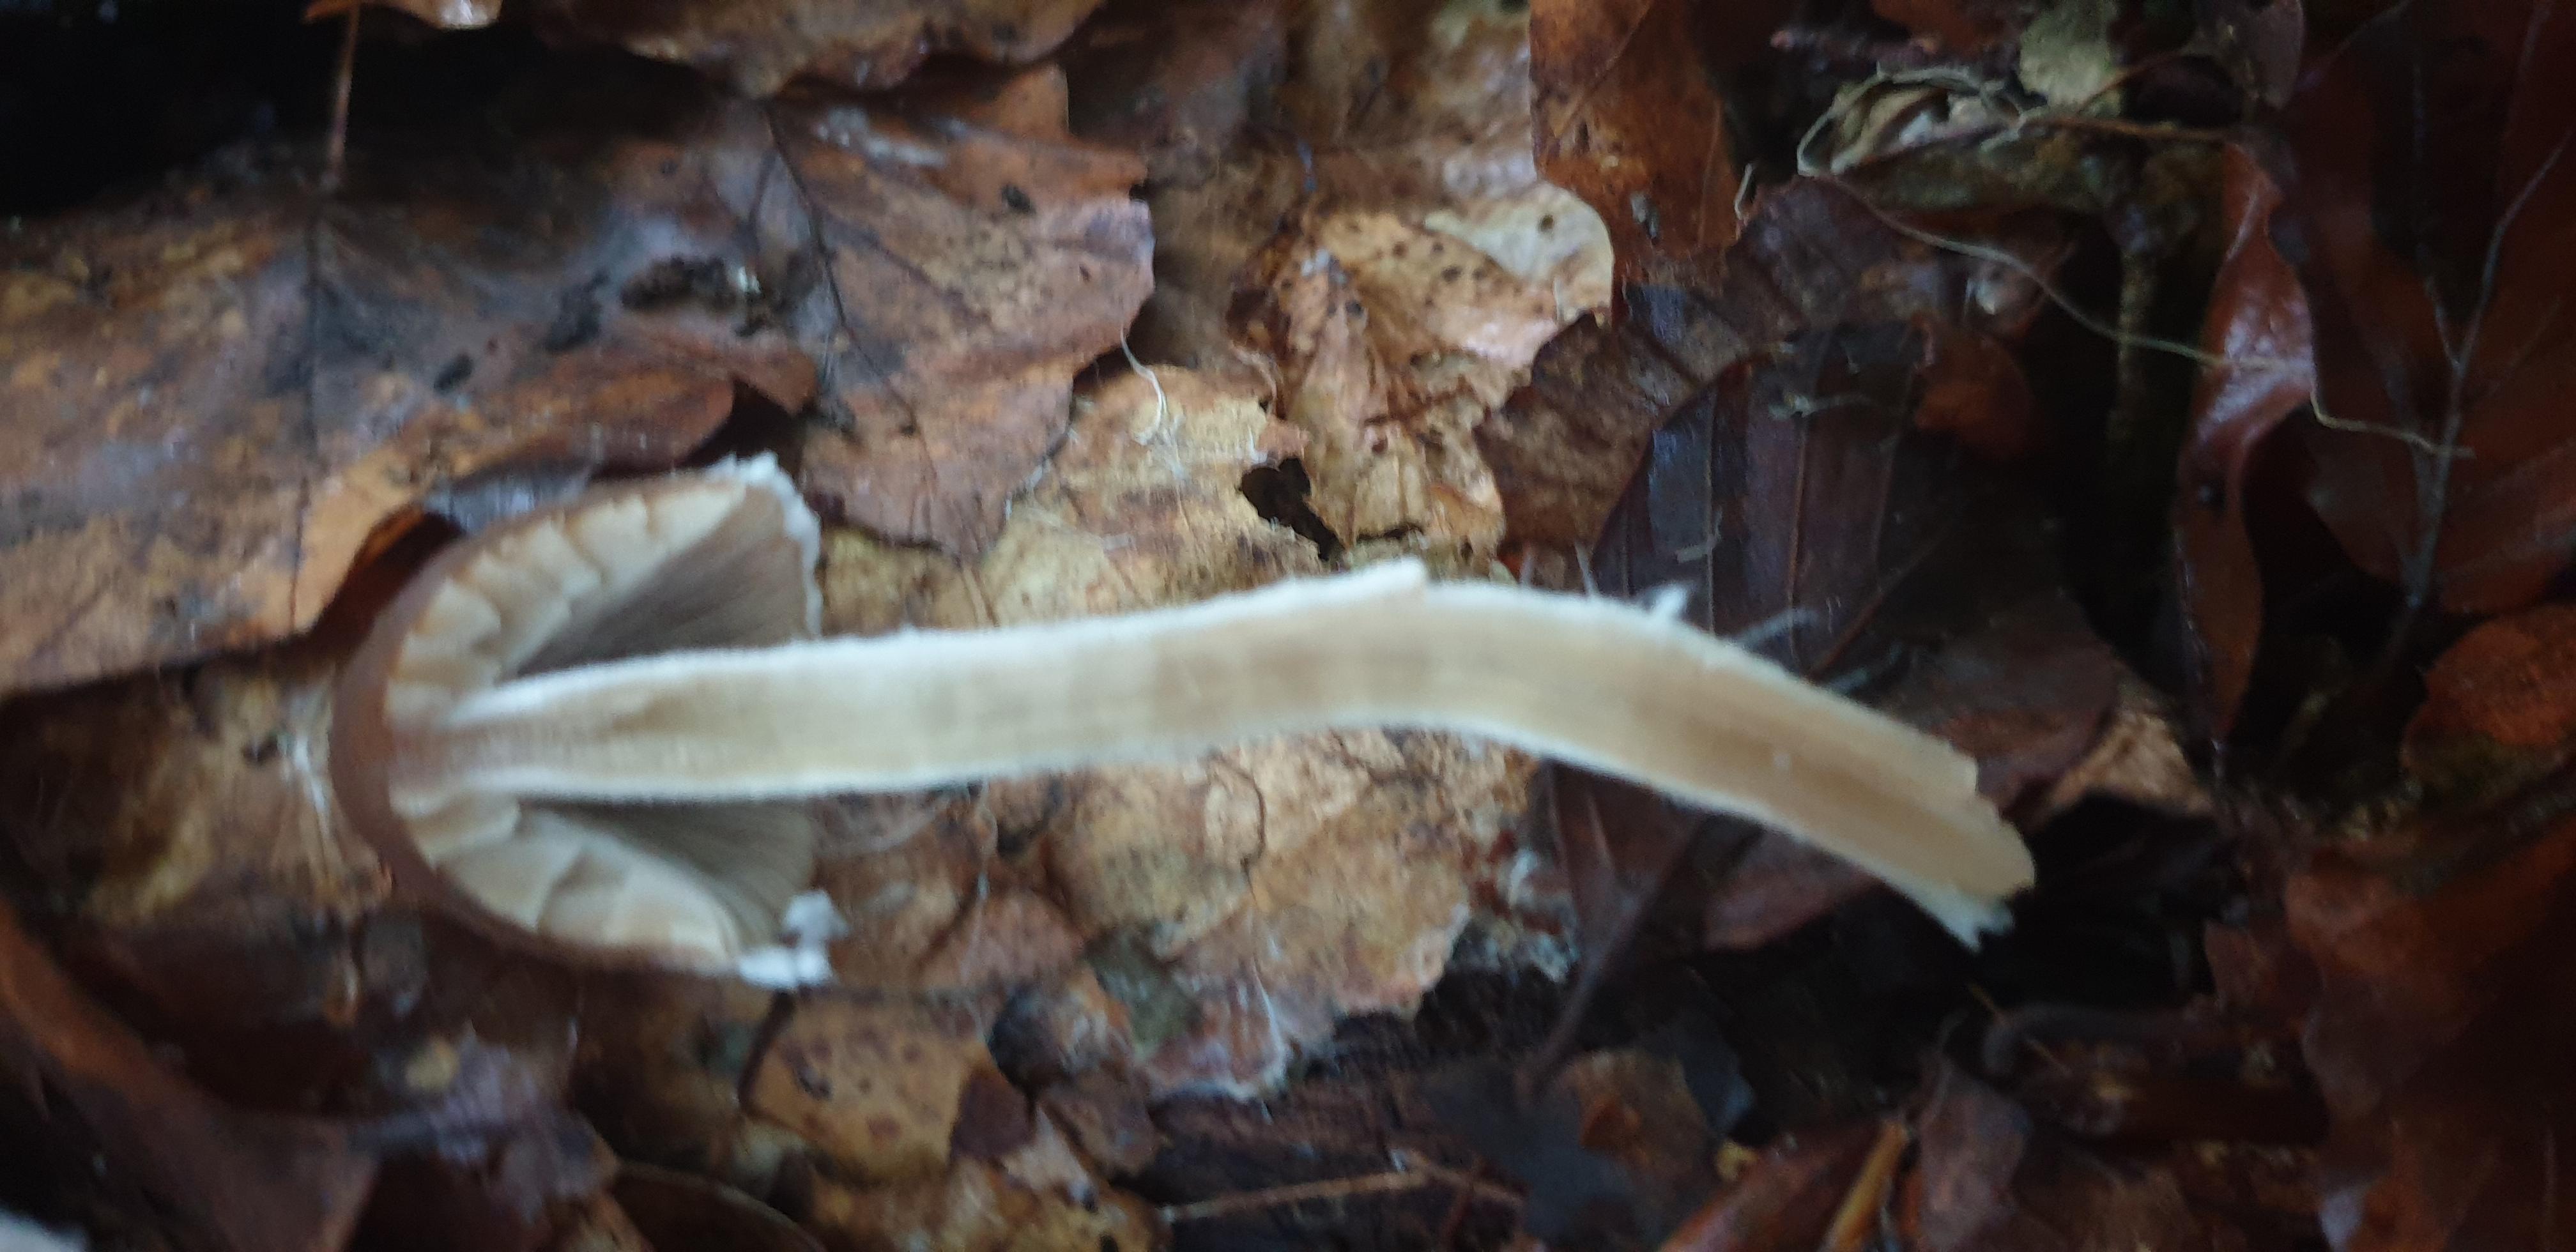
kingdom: Fungi
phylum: Basidiomycota
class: Agaricomycetes
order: Agaricales
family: Psathyrellaceae
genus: Psathyrella
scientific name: Psathyrella
